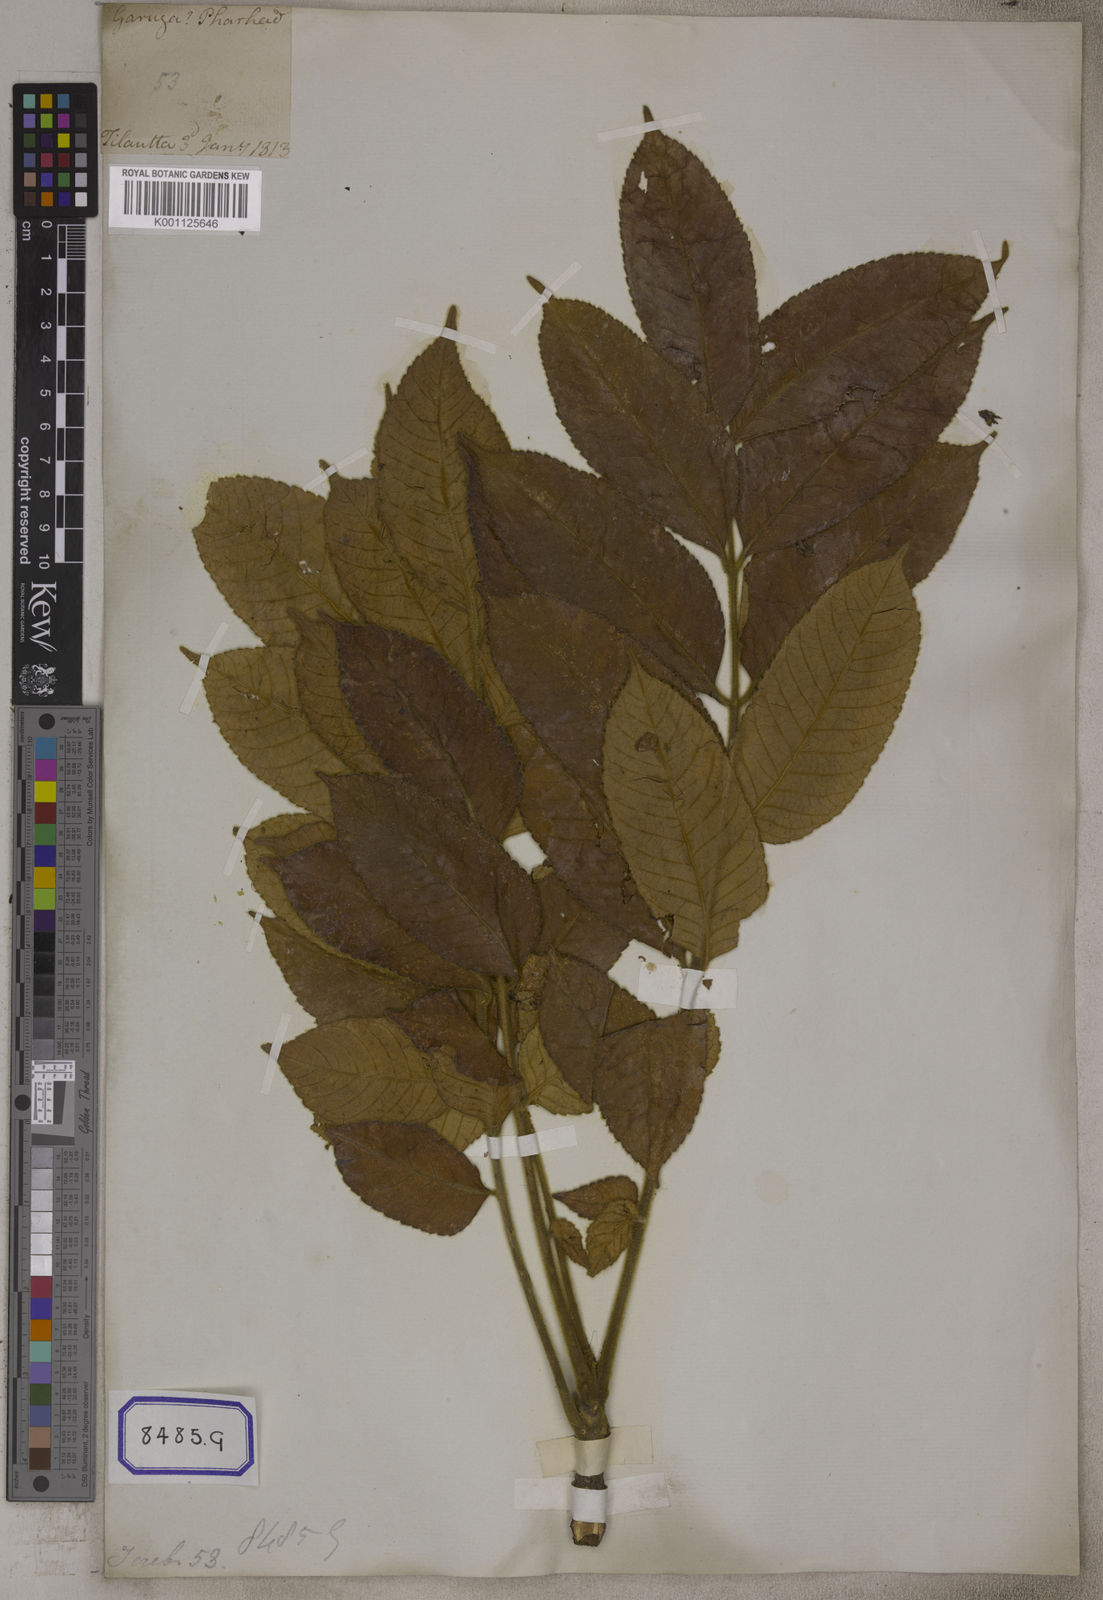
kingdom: Plantae
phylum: Tracheophyta
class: Magnoliopsida
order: Sapindales
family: Burseraceae
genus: Garuga
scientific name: Garuga pinnata
